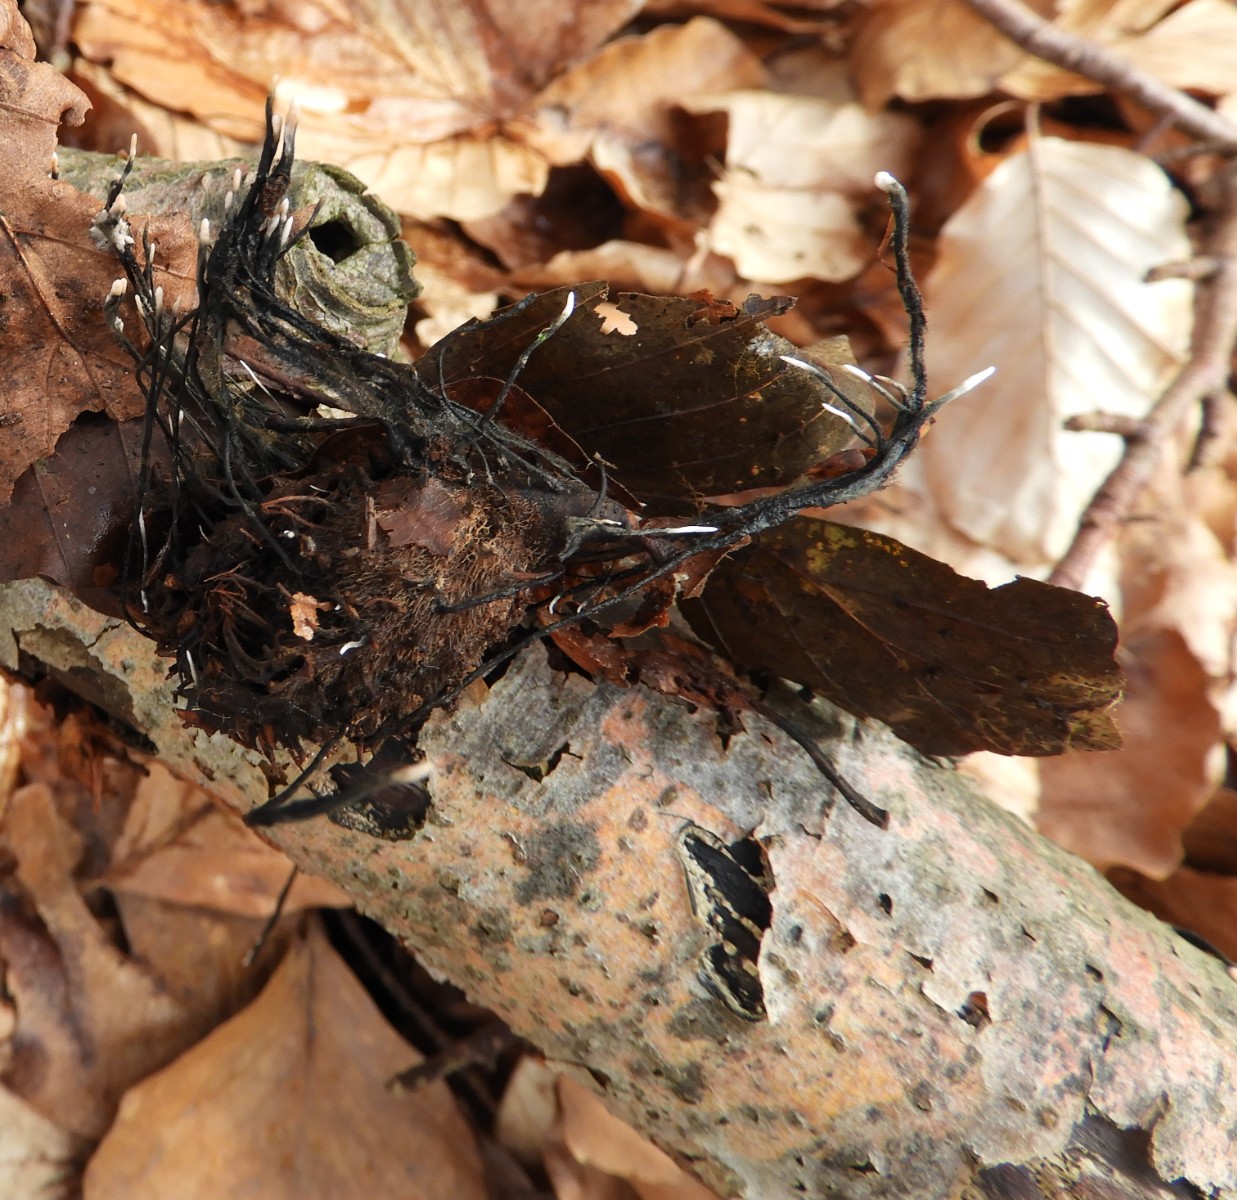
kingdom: Fungi
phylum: Ascomycota
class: Sordariomycetes
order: Xylariales
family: Xylariaceae
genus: Xylaria
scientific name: Xylaria carpophila
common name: bogskål-stødsvamp
